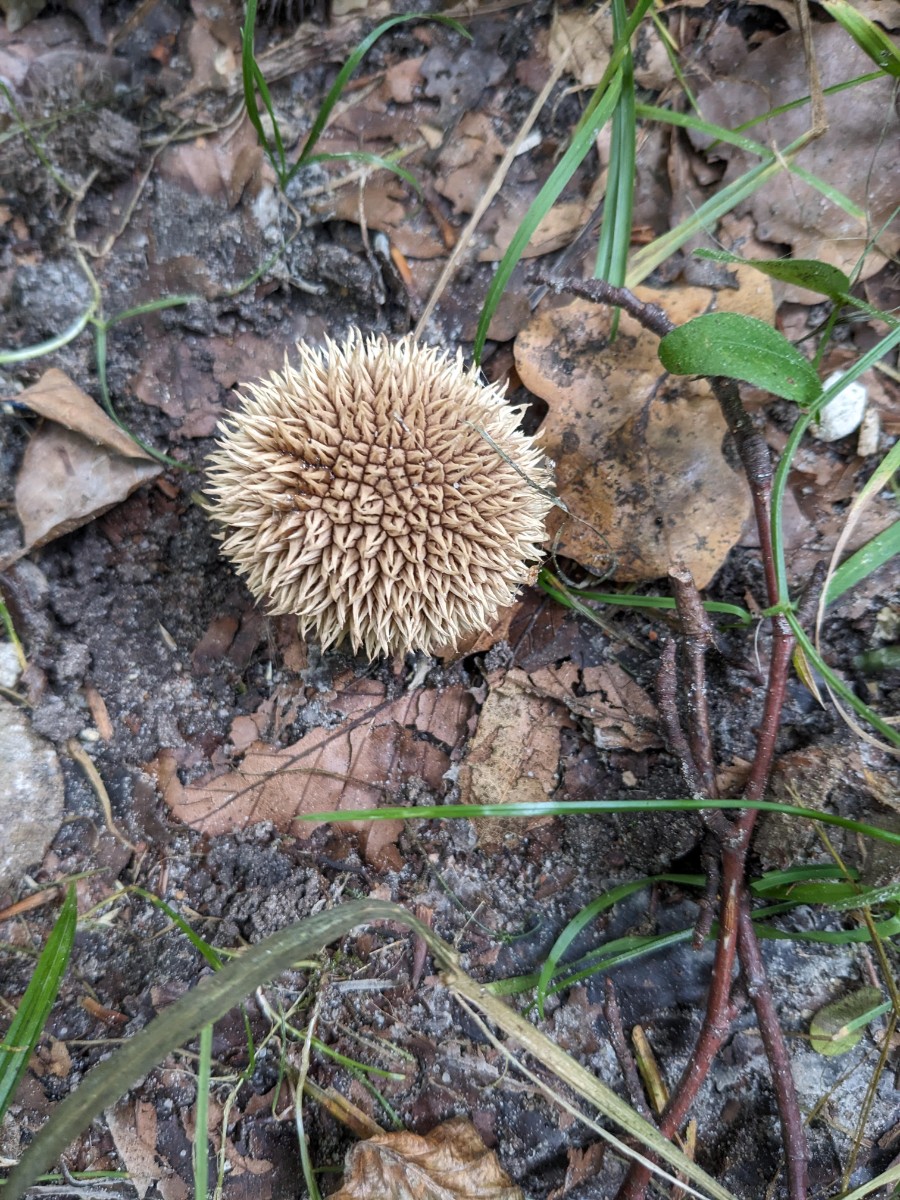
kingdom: Fungi
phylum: Basidiomycota
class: Agaricomycetes
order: Agaricales
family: Lycoperdaceae
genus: Lycoperdon
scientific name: Lycoperdon echinatum
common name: pindsvine-støvbold
